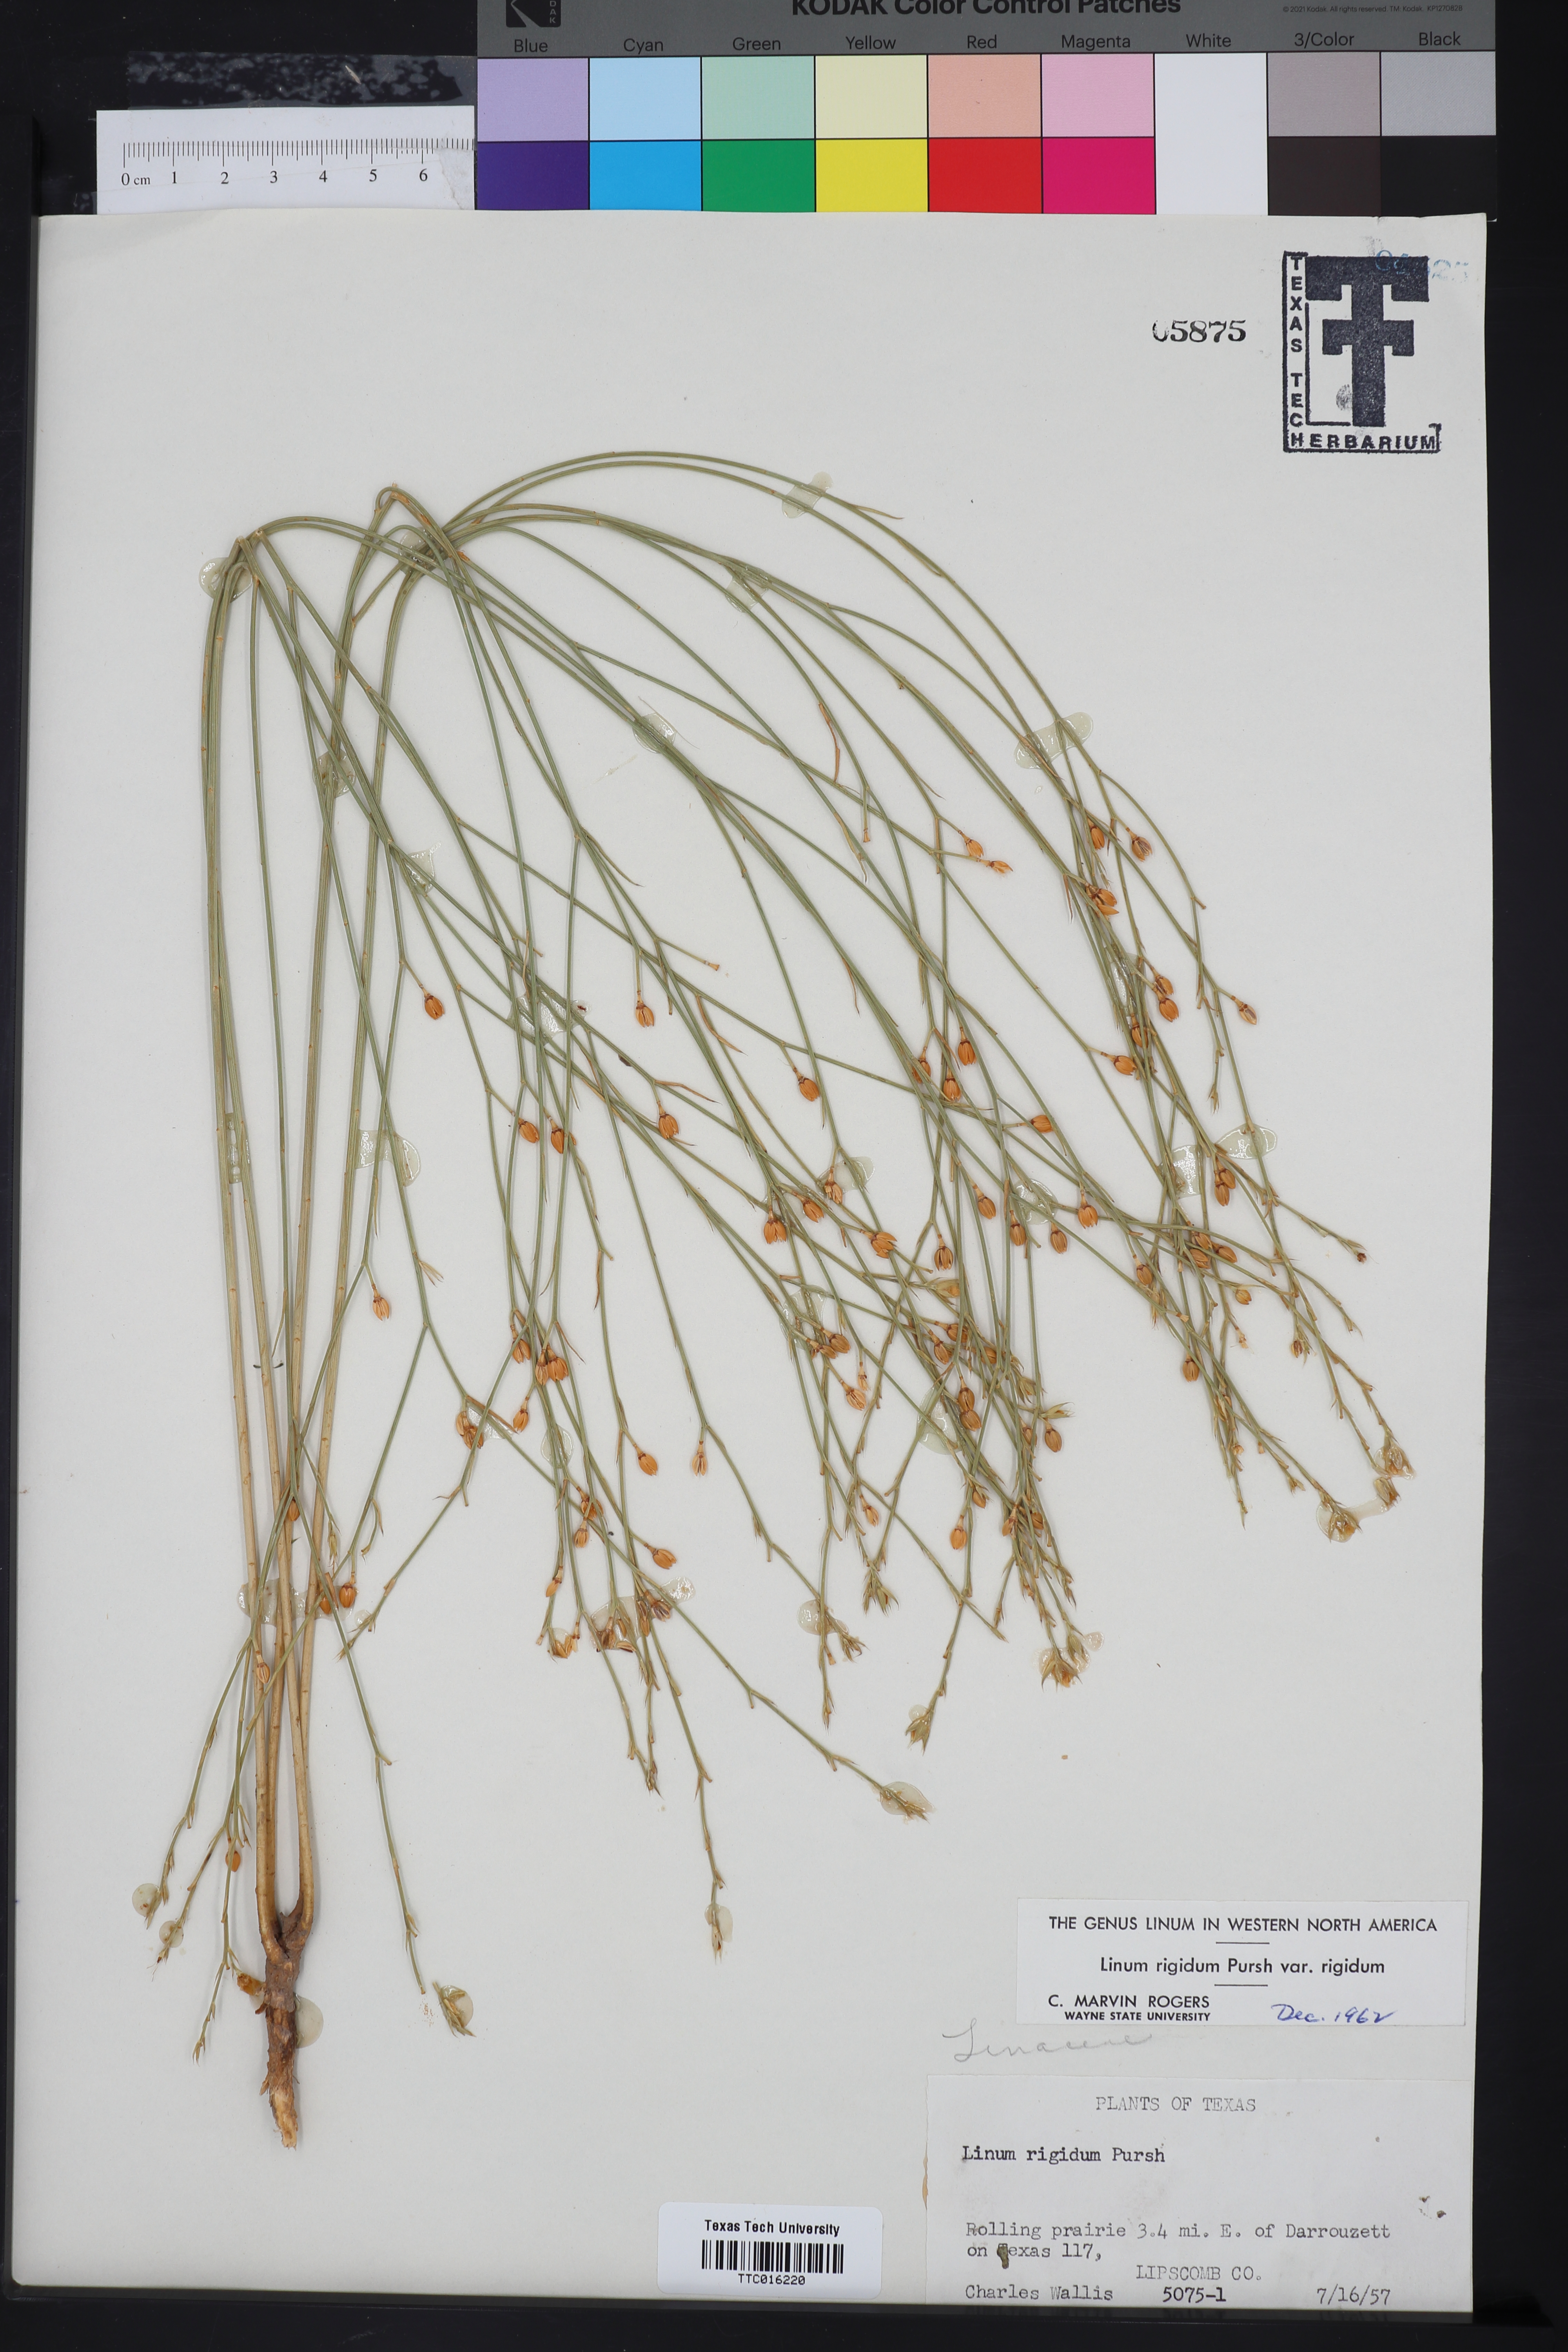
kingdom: Plantae
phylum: Tracheophyta
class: Magnoliopsida
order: Malpighiales
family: Linaceae
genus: Linum
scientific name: Linum rigidum
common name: Stiff-stem flax
